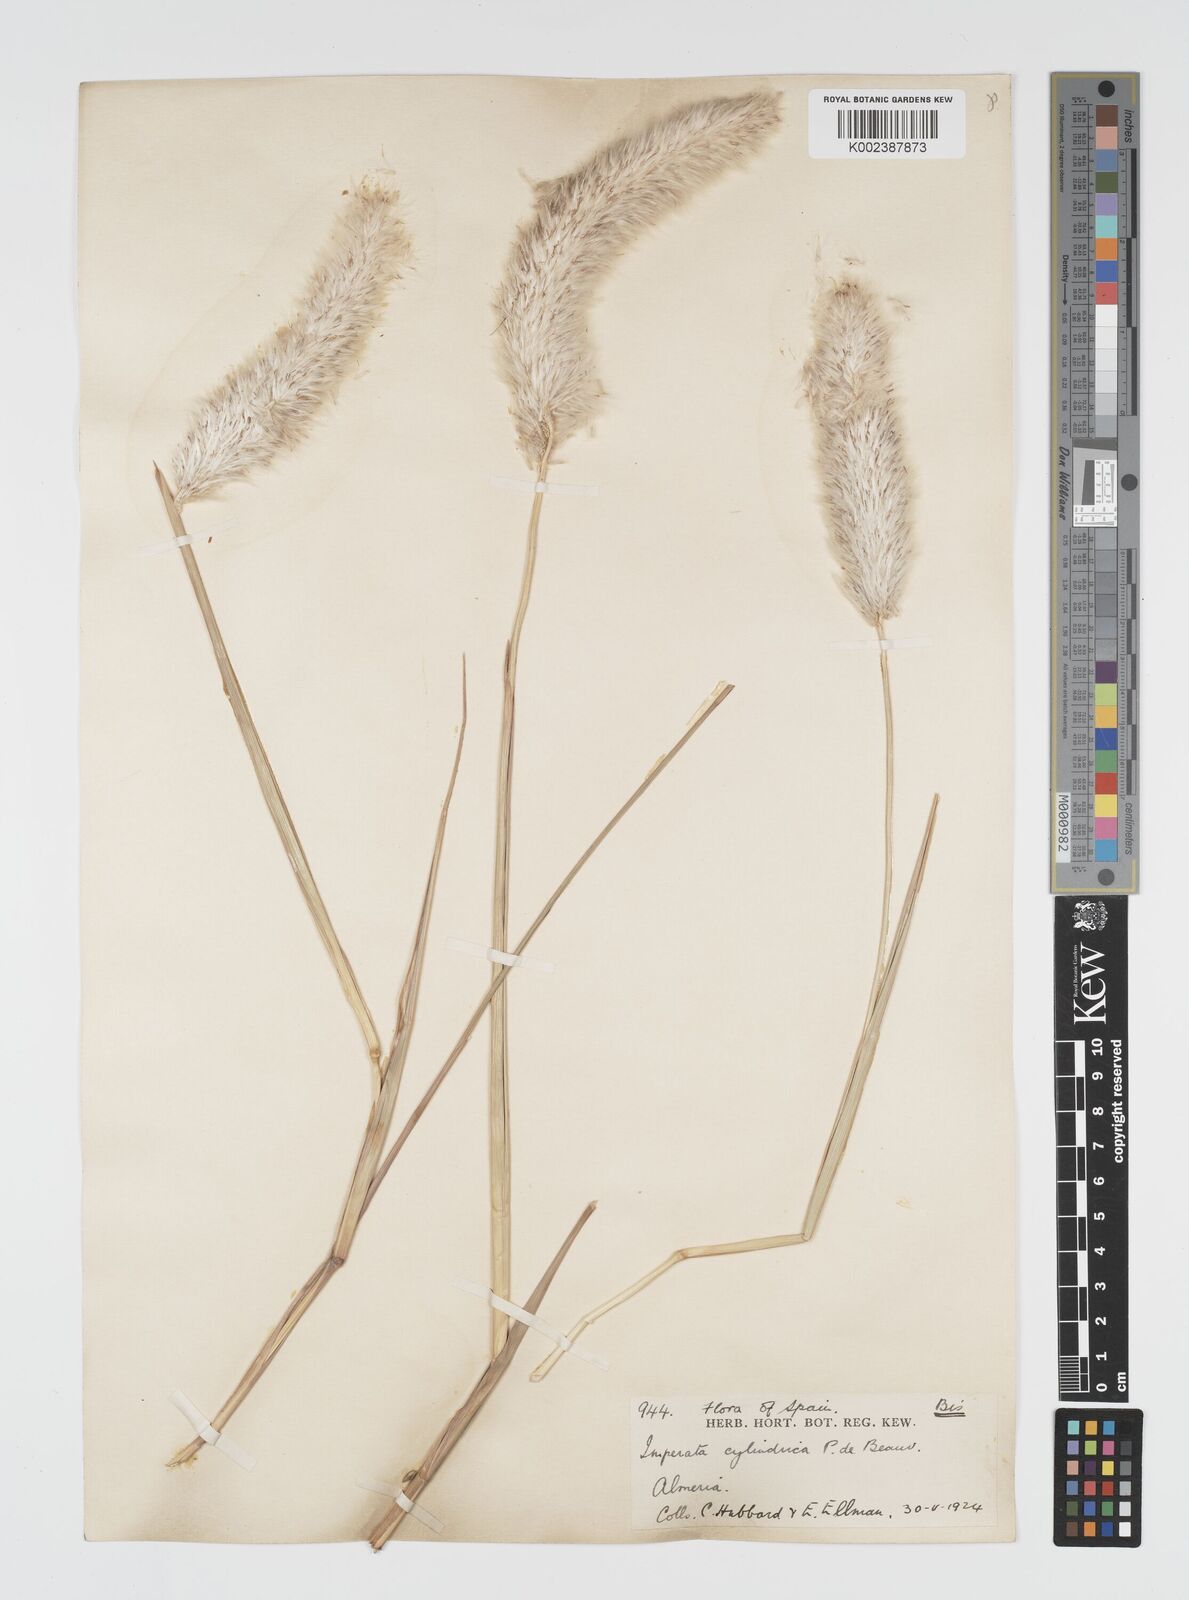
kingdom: Plantae
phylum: Tracheophyta
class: Liliopsida
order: Poales
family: Poaceae
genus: Imperata
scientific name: Imperata cylindrica
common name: Cogongrass
